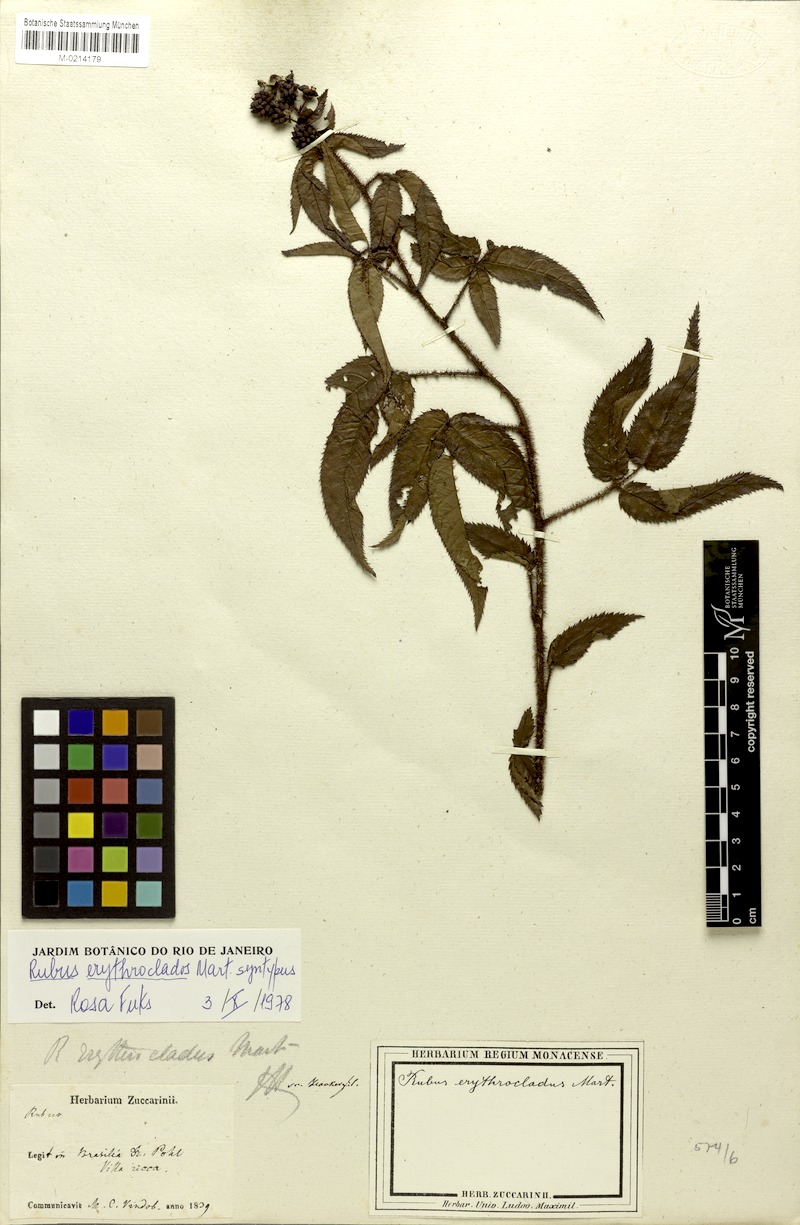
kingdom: Plantae
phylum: Tracheophyta
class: Magnoliopsida
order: Rosales
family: Rosaceae
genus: Rubus
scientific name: Rubus erythroclados
